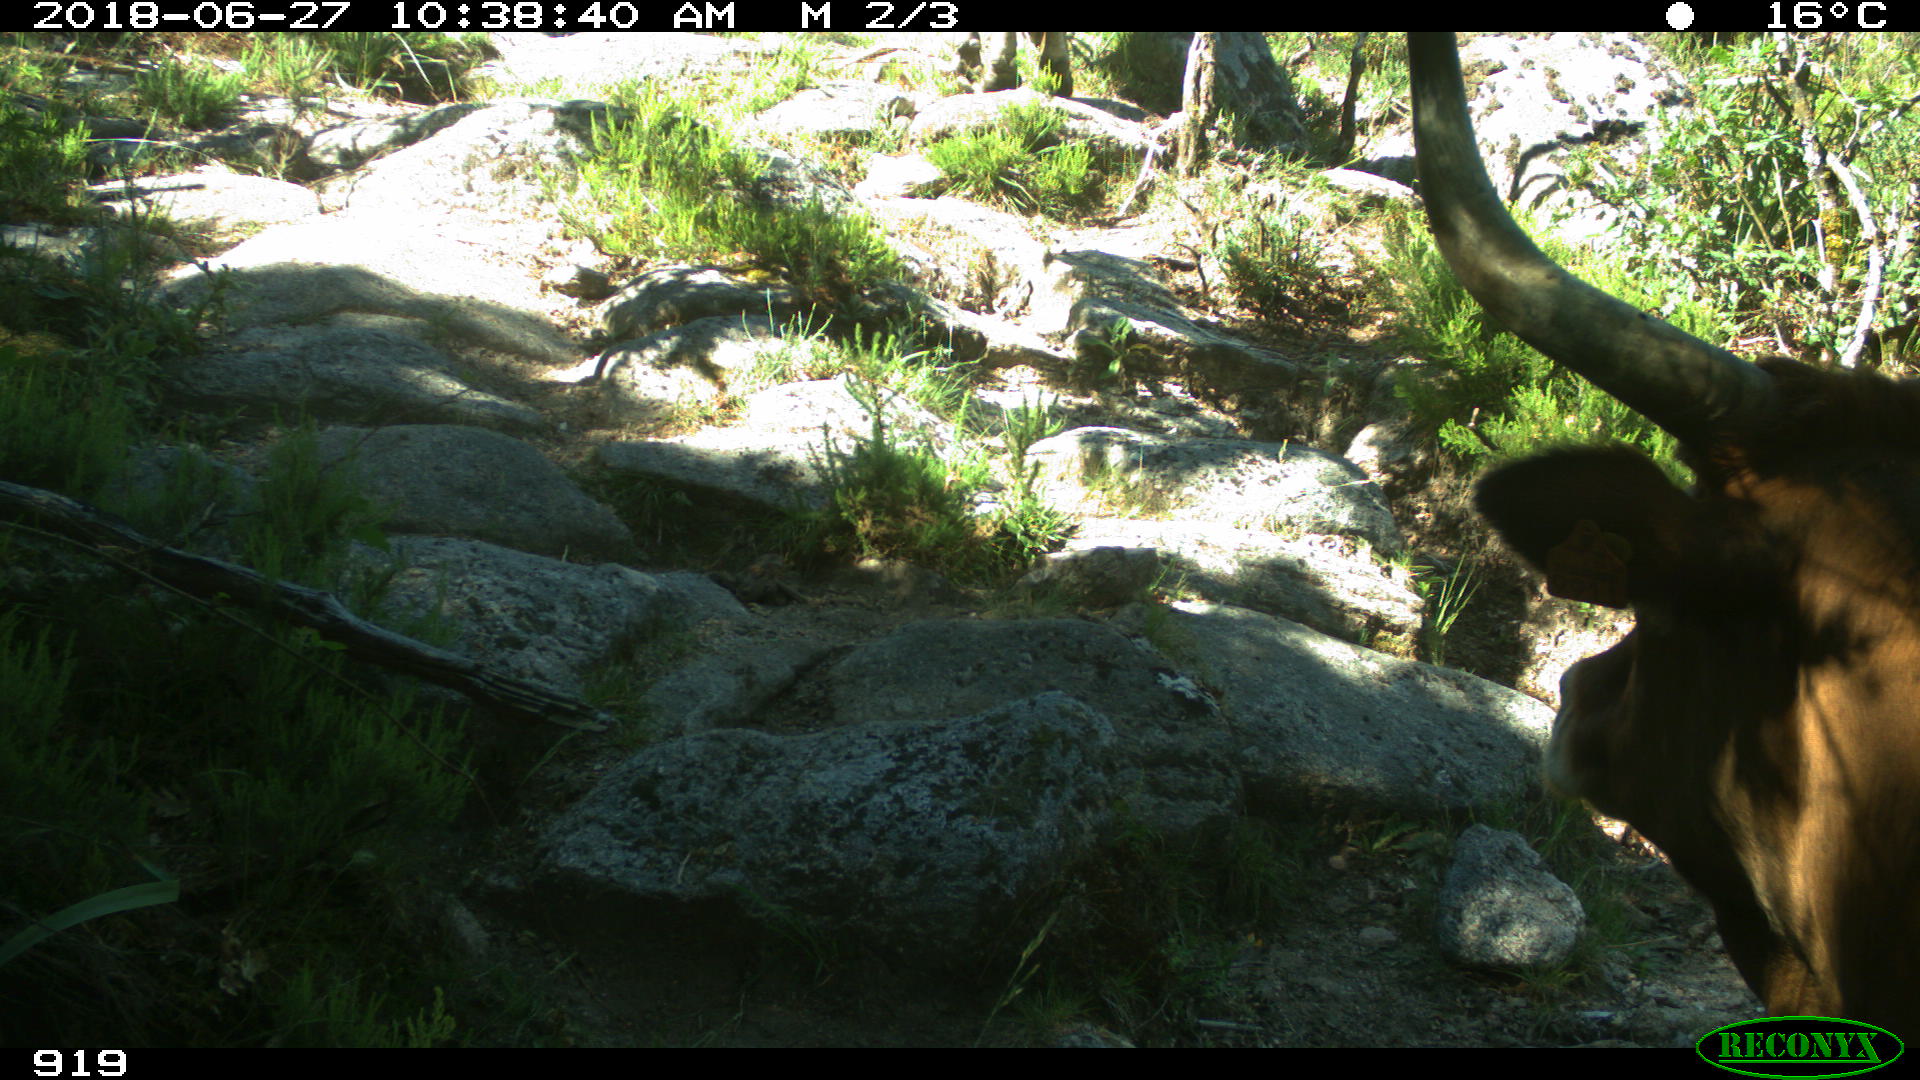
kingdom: Animalia
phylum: Chordata
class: Mammalia
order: Artiodactyla
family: Bovidae
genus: Bos
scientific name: Bos taurus
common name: Domesticated cattle
